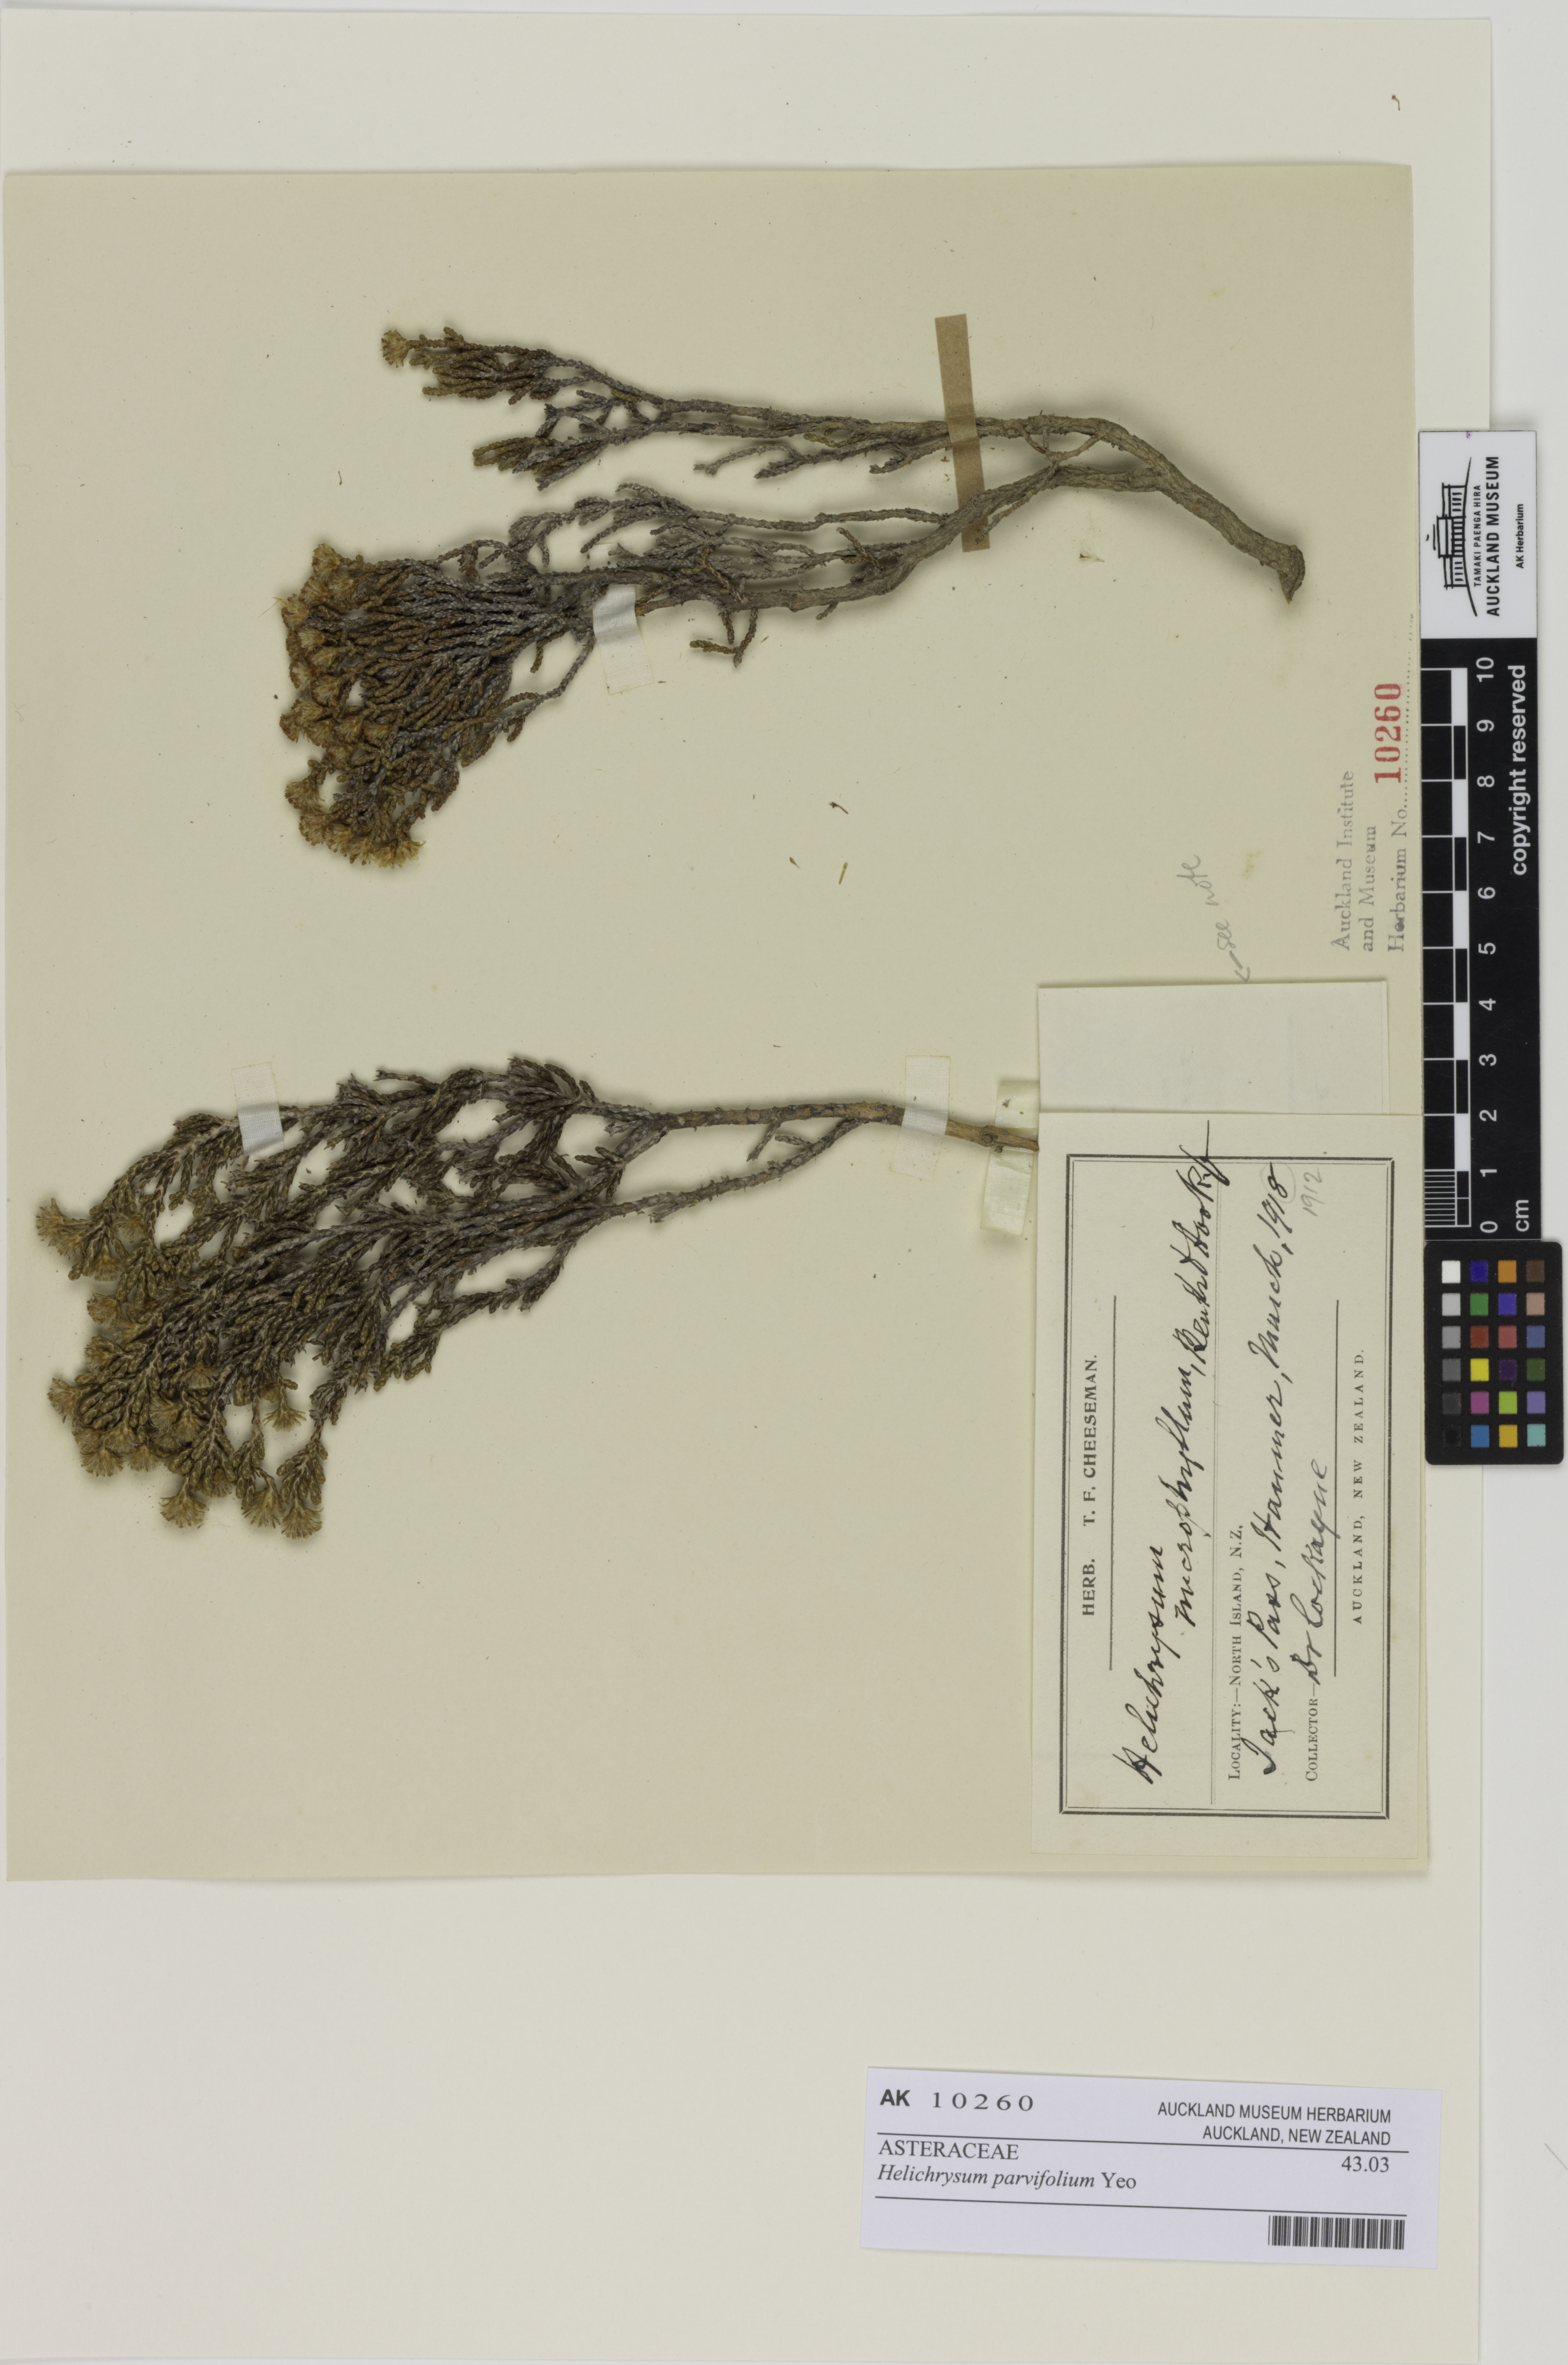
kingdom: Plantae
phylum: Tracheophyta
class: Magnoliopsida
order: Asterales
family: Asteraceae
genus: Ozothamnus
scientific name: Ozothamnus parvifolius
